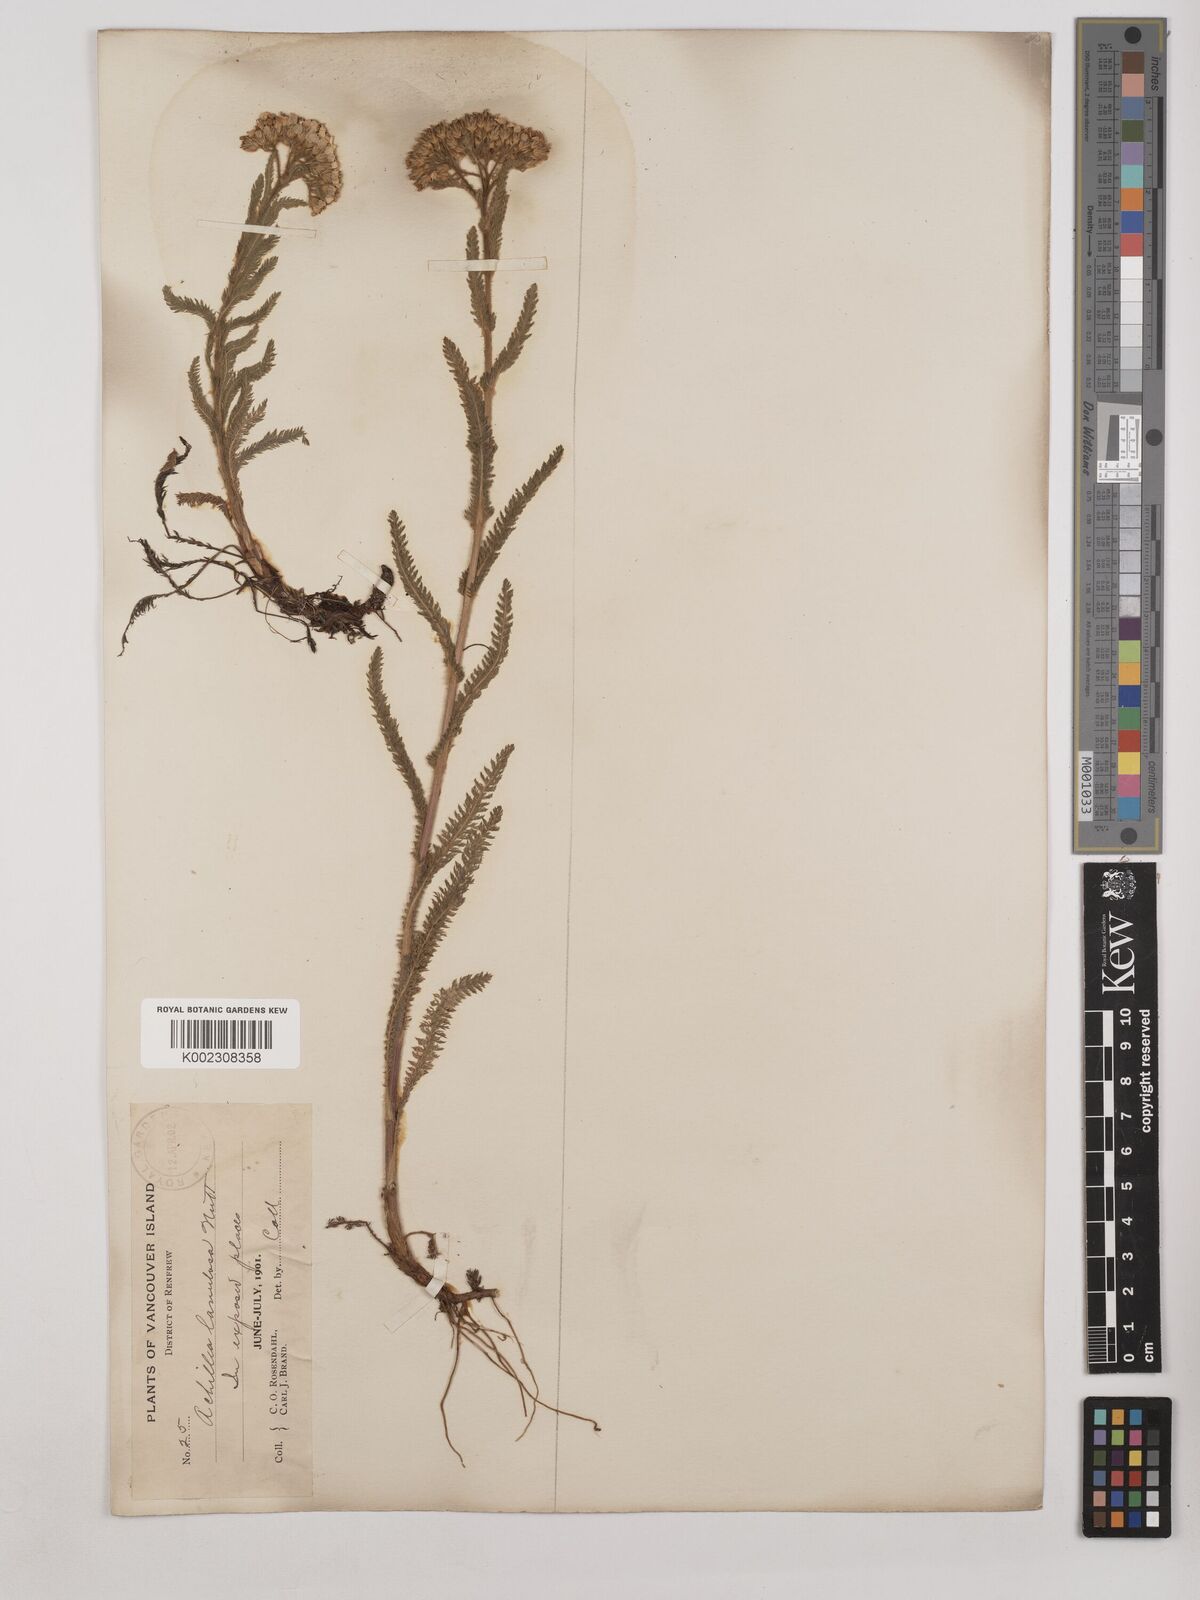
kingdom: Plantae
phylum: Tracheophyta
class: Magnoliopsida
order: Asterales
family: Asteraceae
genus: Achillea
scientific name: Achillea millefolium
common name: Yarrow
